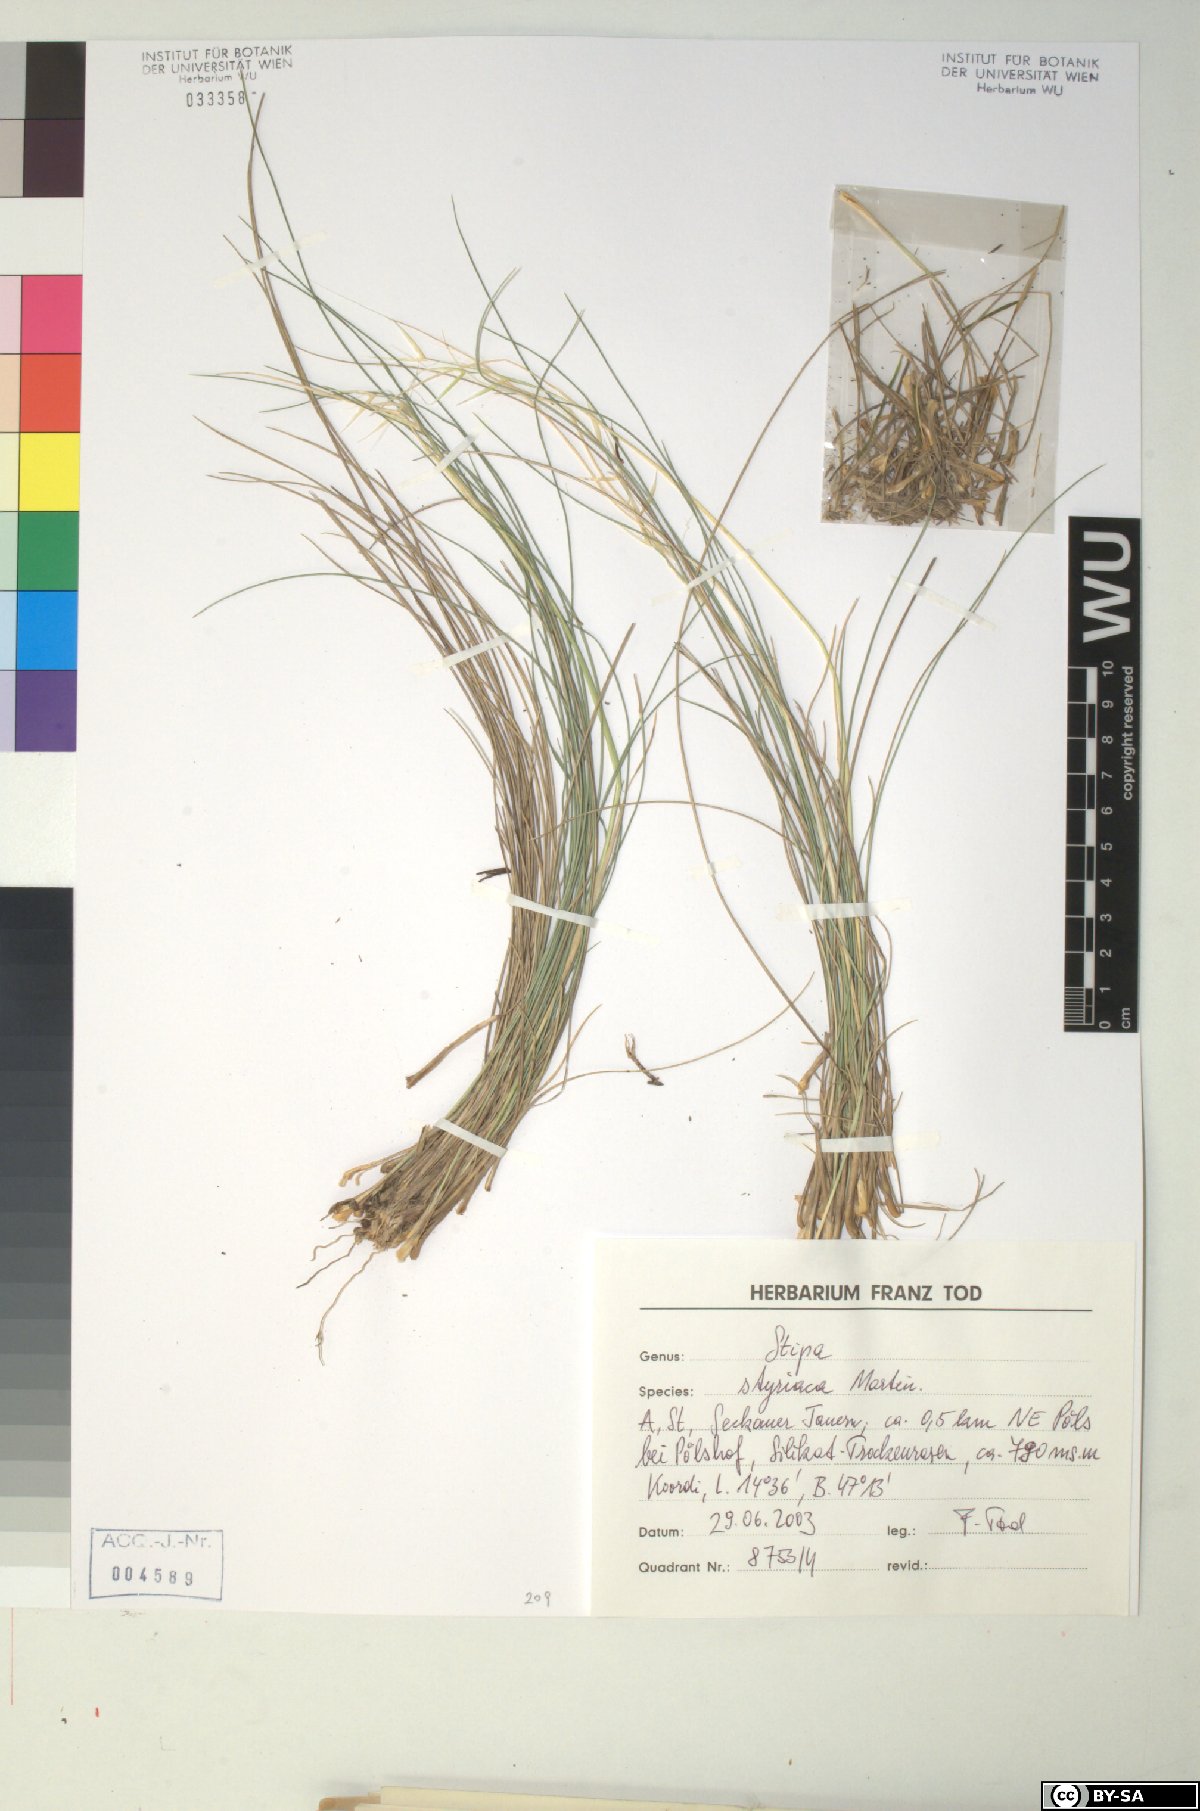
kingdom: Plantae
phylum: Tracheophyta
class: Liliopsida
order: Poales
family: Poaceae
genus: Stipa
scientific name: Stipa pennata
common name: European feather grass
